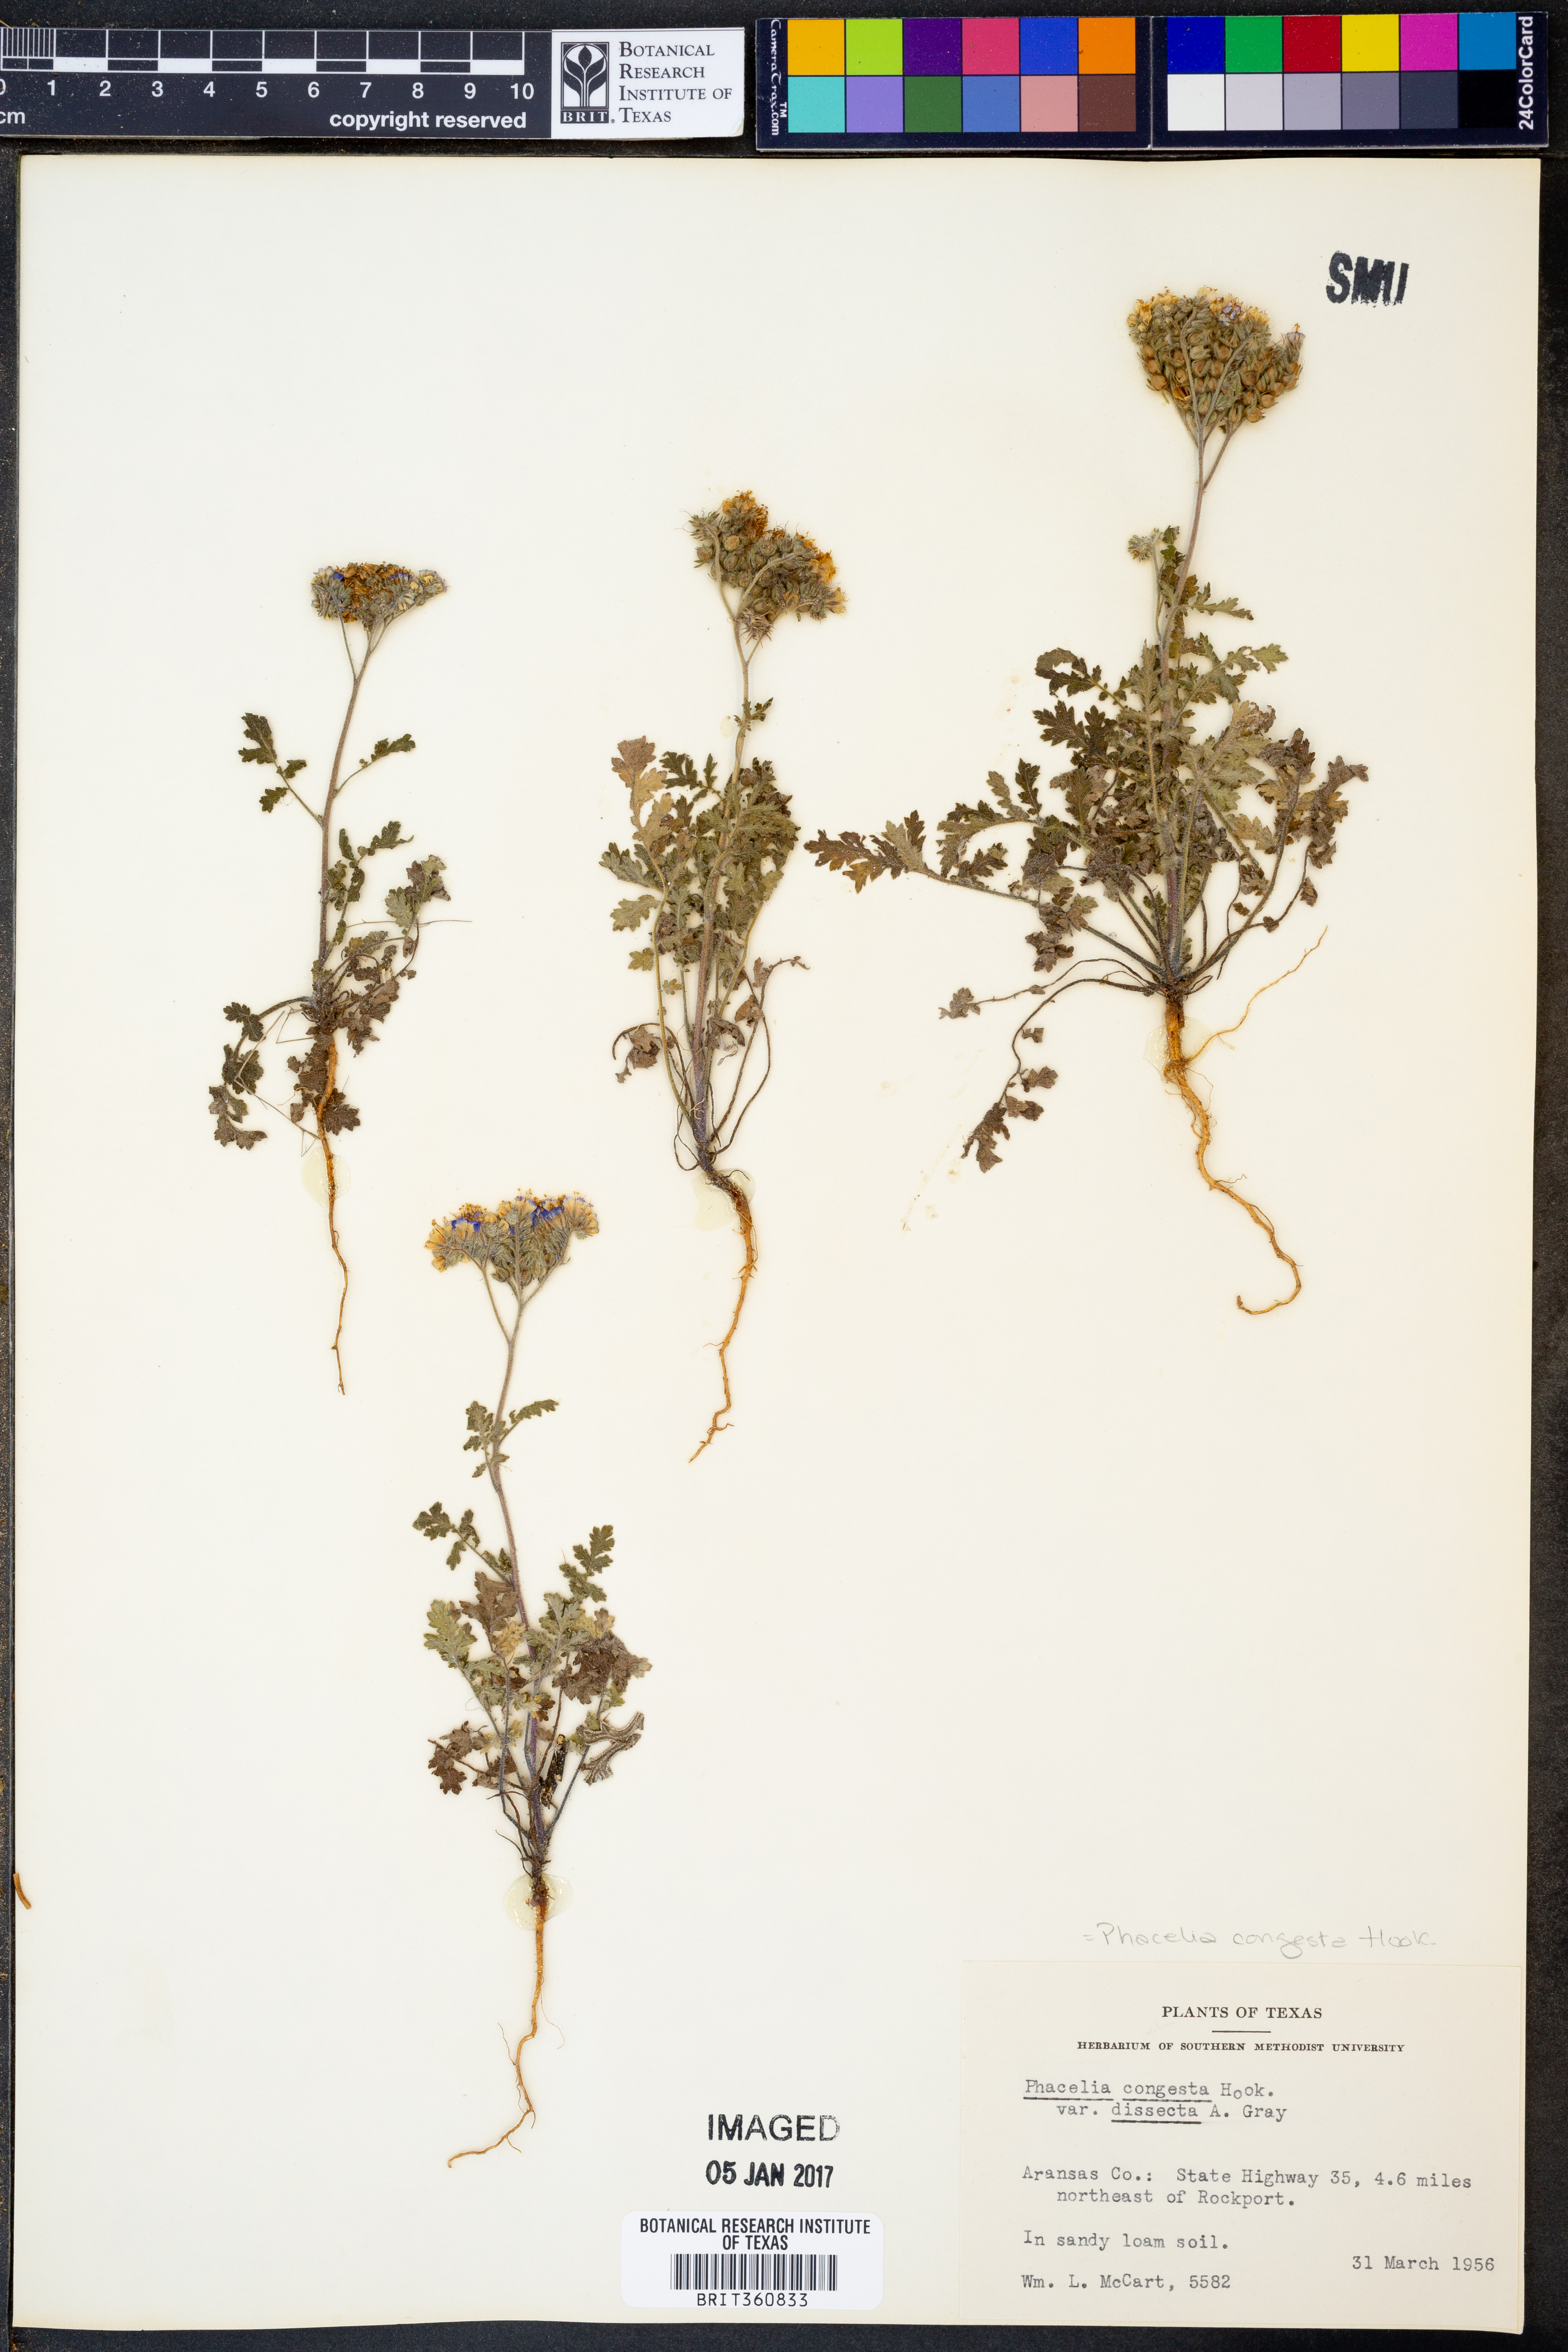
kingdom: Plantae
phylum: Tracheophyta
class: Magnoliopsida
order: Boraginales
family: Hydrophyllaceae
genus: Phacelia
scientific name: Phacelia congesta
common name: Blue curls
